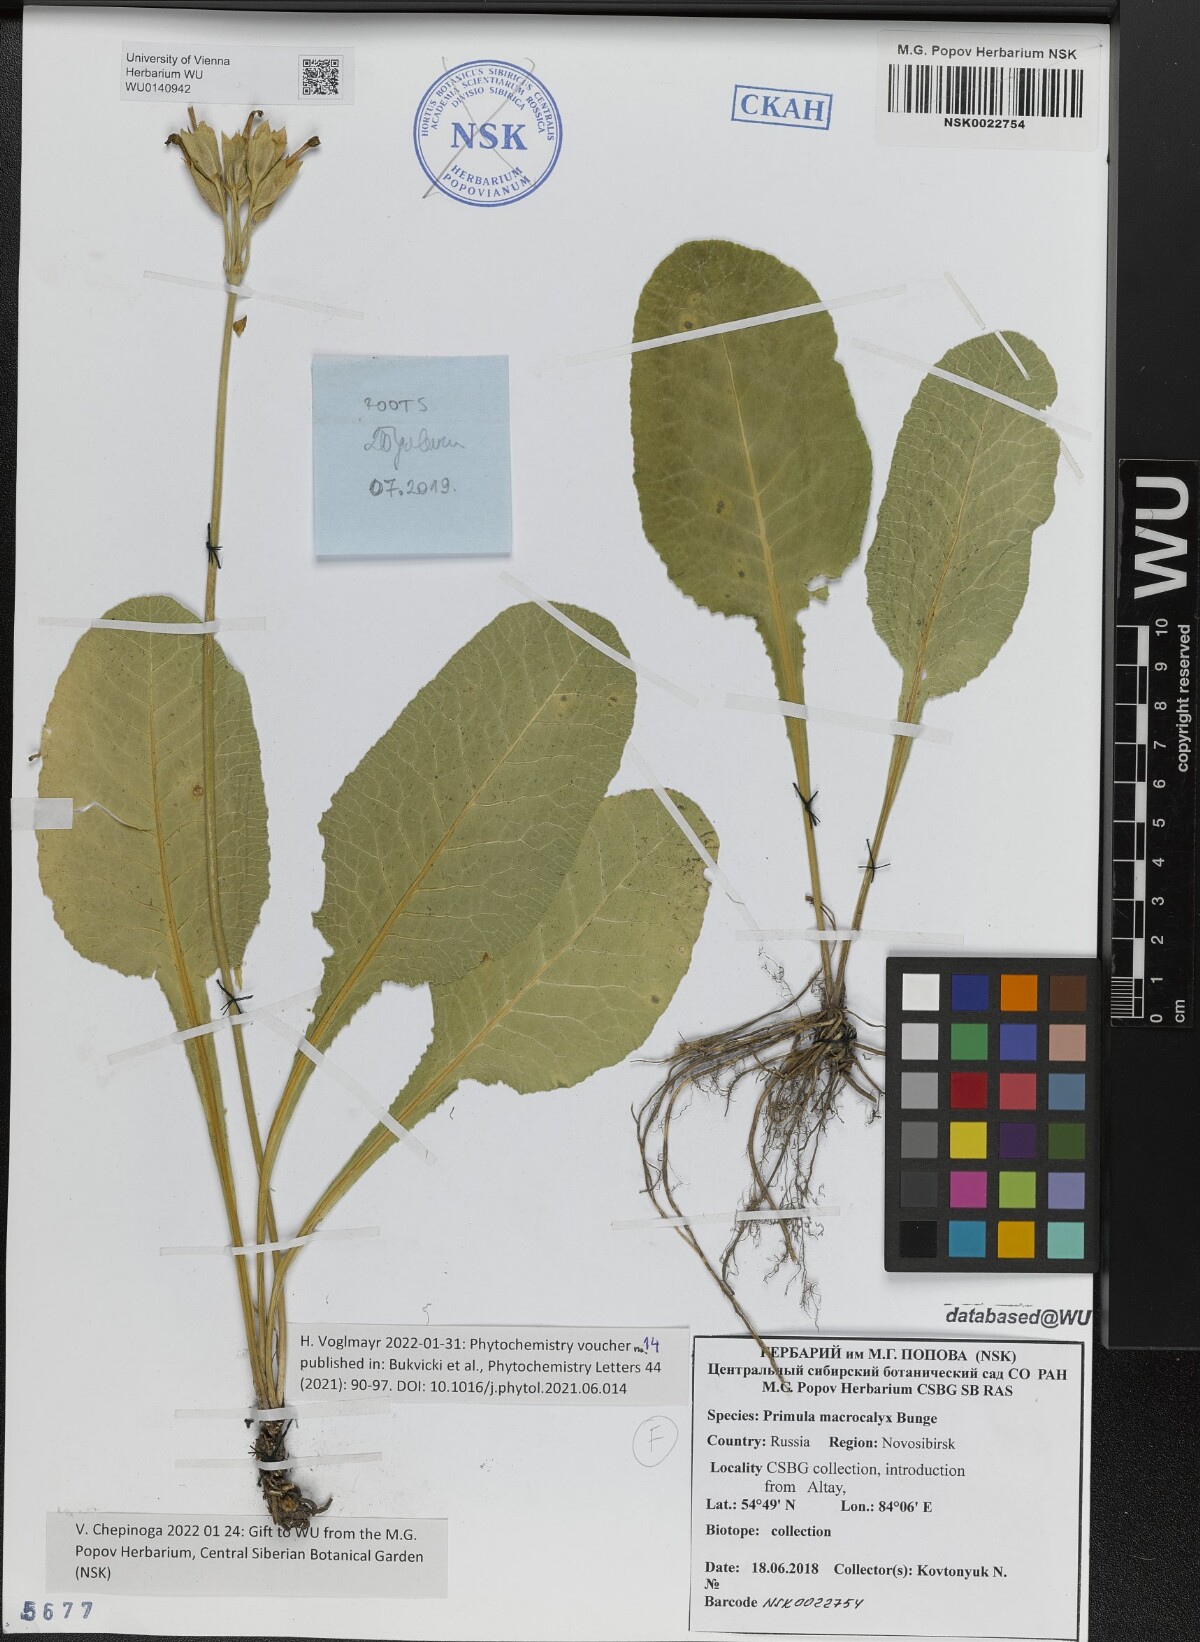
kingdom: Plantae
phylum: Tracheophyta
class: Magnoliopsida
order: Ericales
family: Primulaceae
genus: Primula
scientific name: Primula veris
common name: Cowslip
